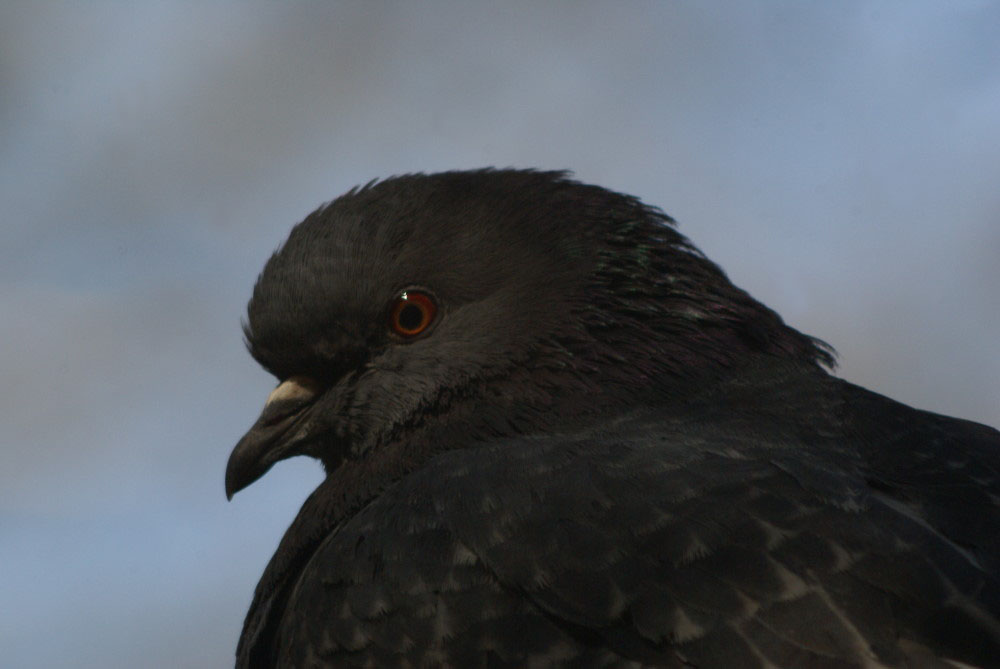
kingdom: Animalia
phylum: Chordata
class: Aves
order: Columbiformes
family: Columbidae
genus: Columba
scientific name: Columba livia
